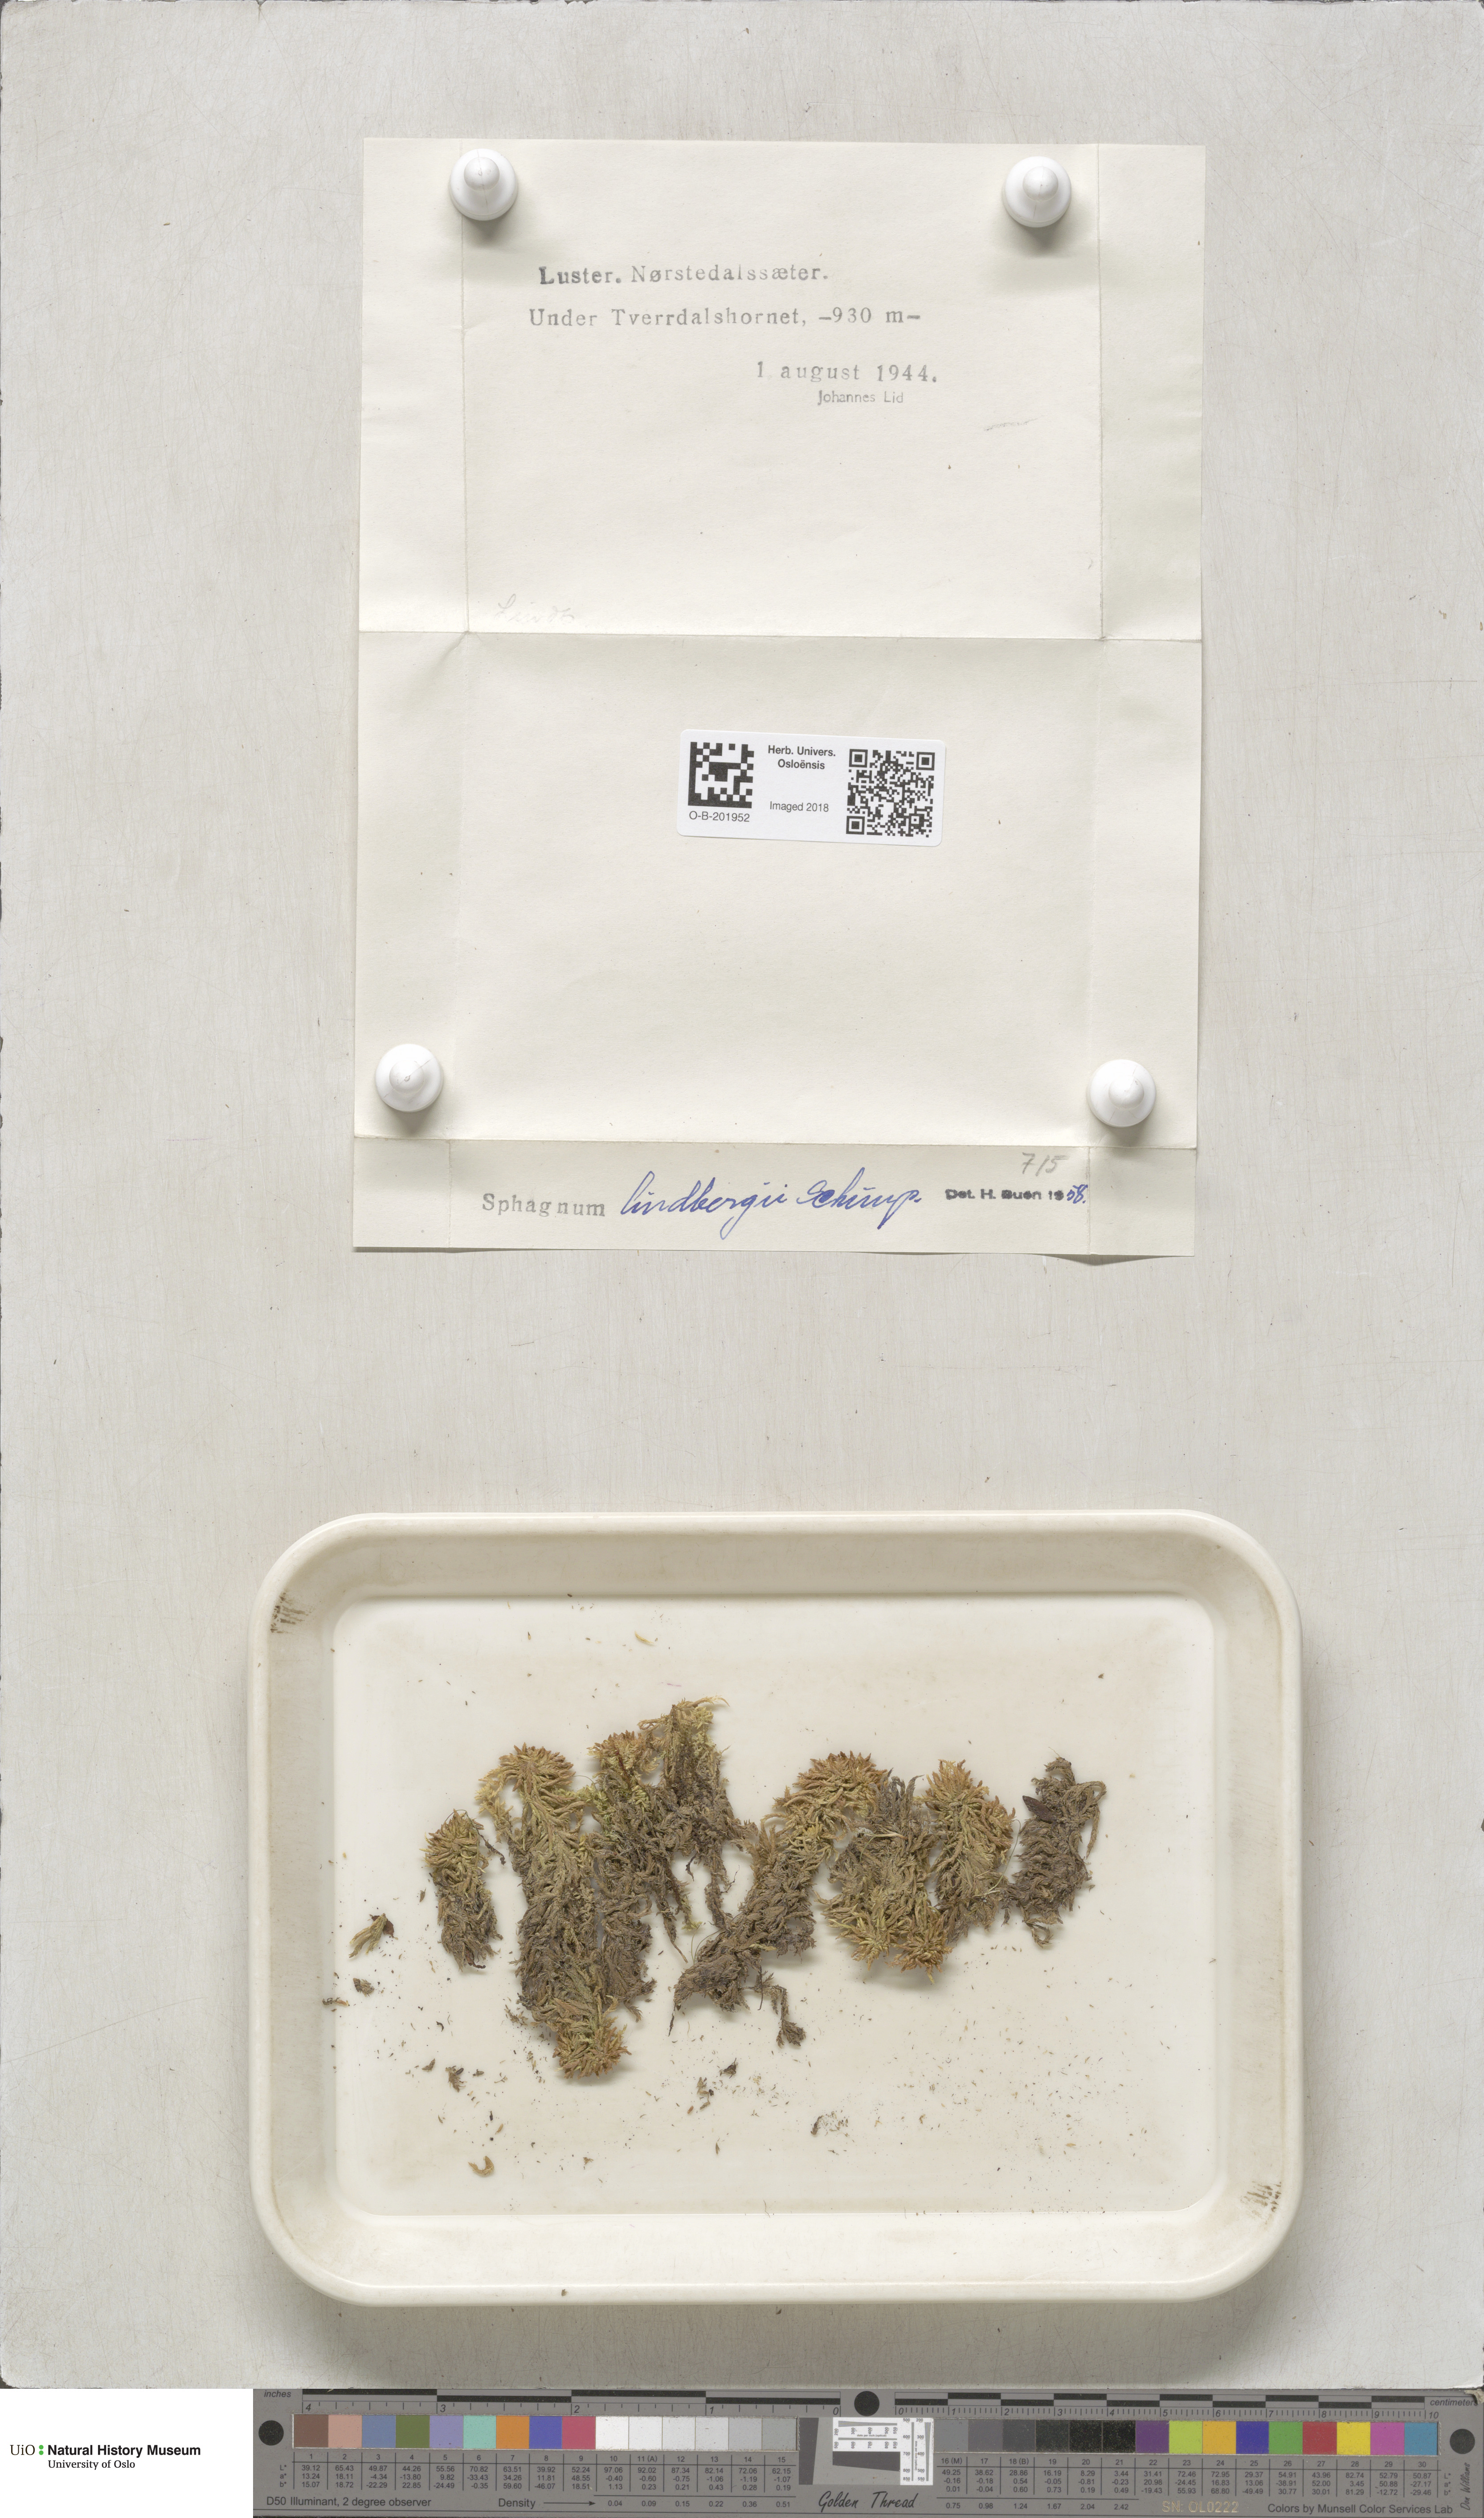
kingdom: Plantae
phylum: Bryophyta
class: Sphagnopsida
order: Sphagnales
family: Sphagnaceae
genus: Sphagnum
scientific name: Sphagnum lindbergii
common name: Lindberg's peat moss
